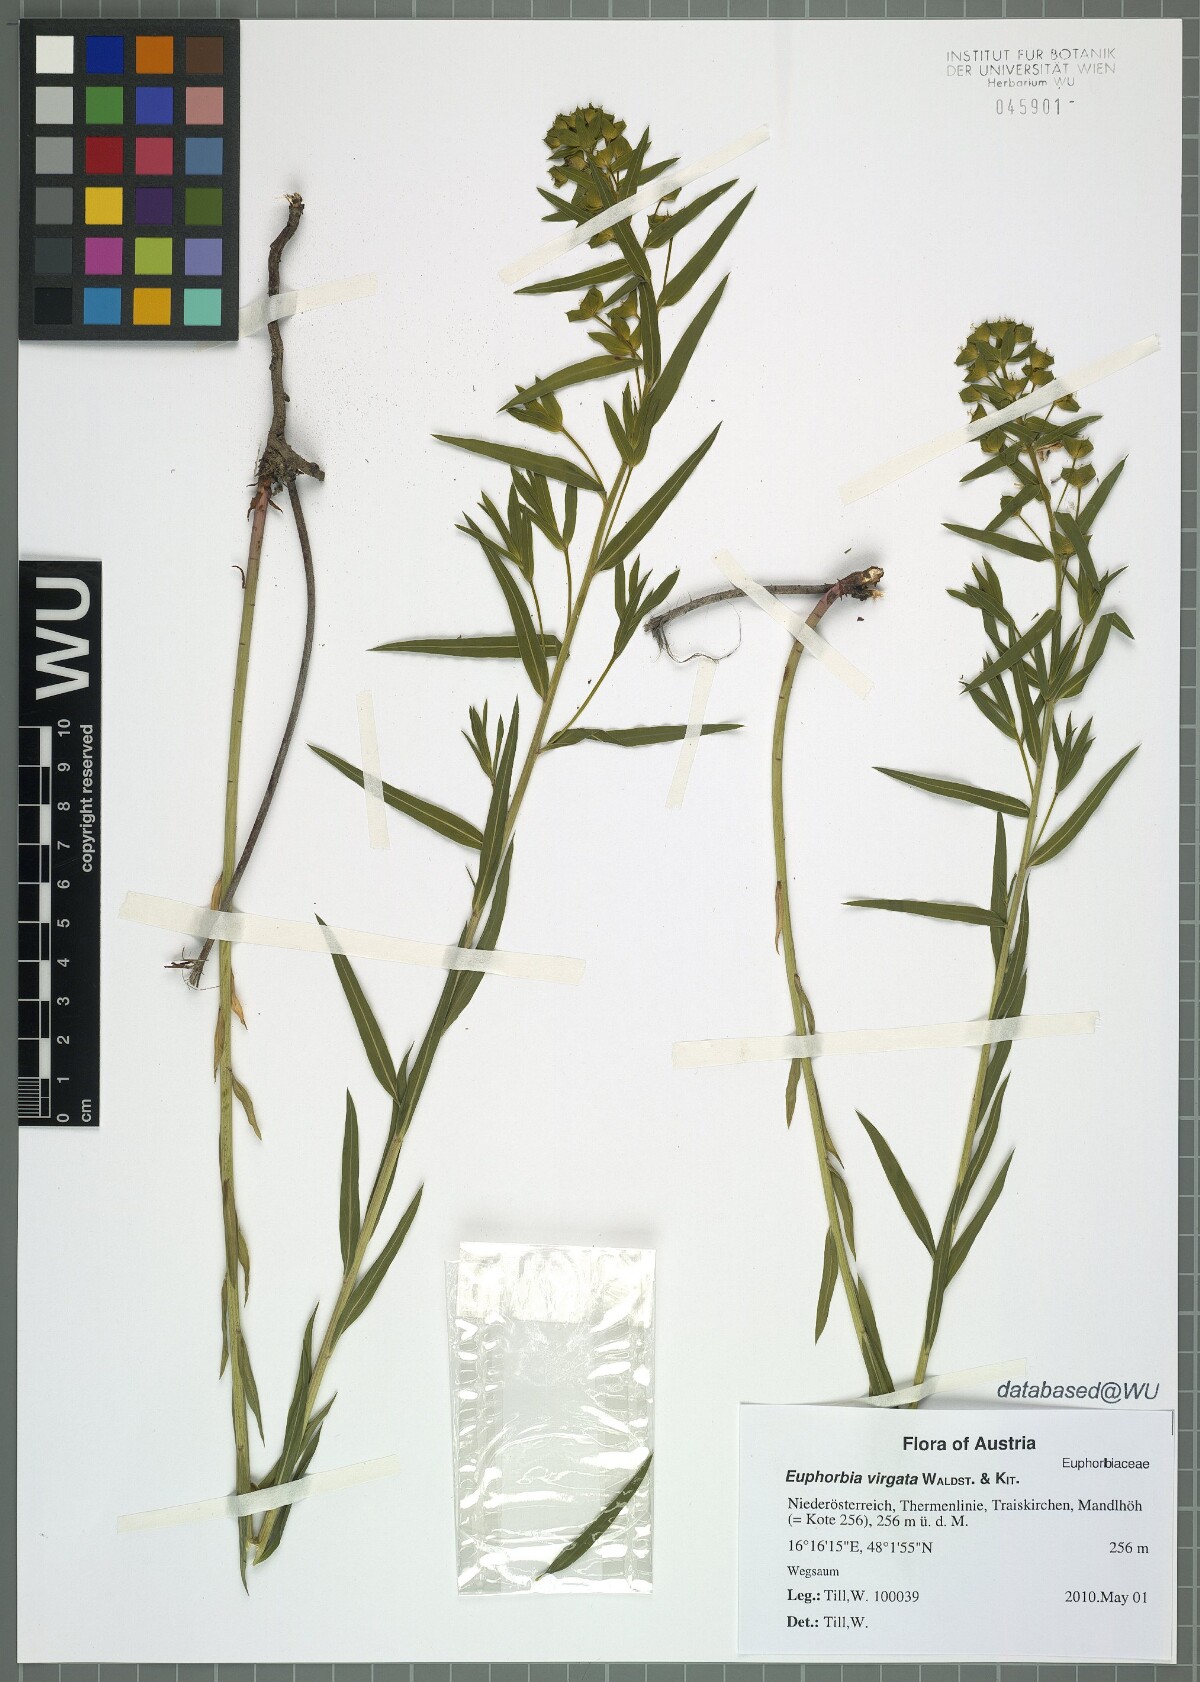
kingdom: Plantae
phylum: Tracheophyta
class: Magnoliopsida
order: Malpighiales
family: Euphorbiaceae
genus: Euphorbia
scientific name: Euphorbia virgata
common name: Leafy spurge
